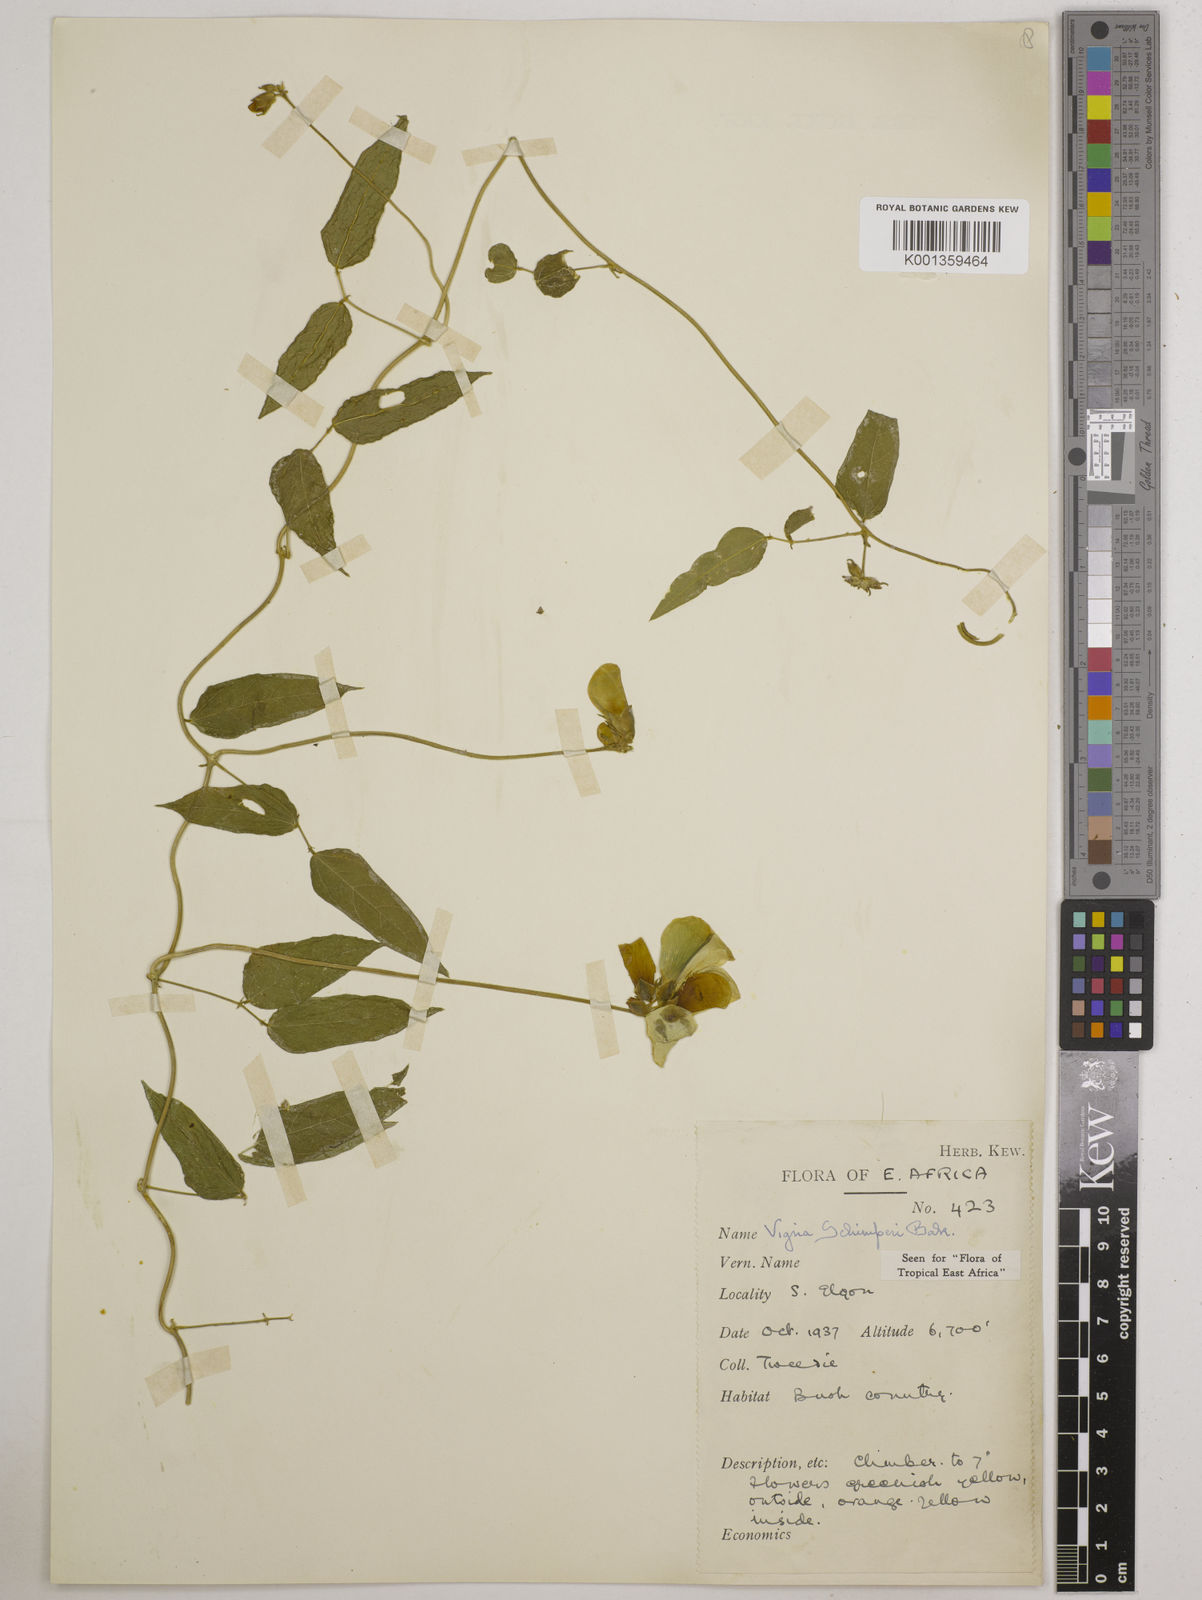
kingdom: Plantae
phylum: Tracheophyta
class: Magnoliopsida
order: Fabales
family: Fabaceae
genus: Vigna
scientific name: Vigna schimperi
